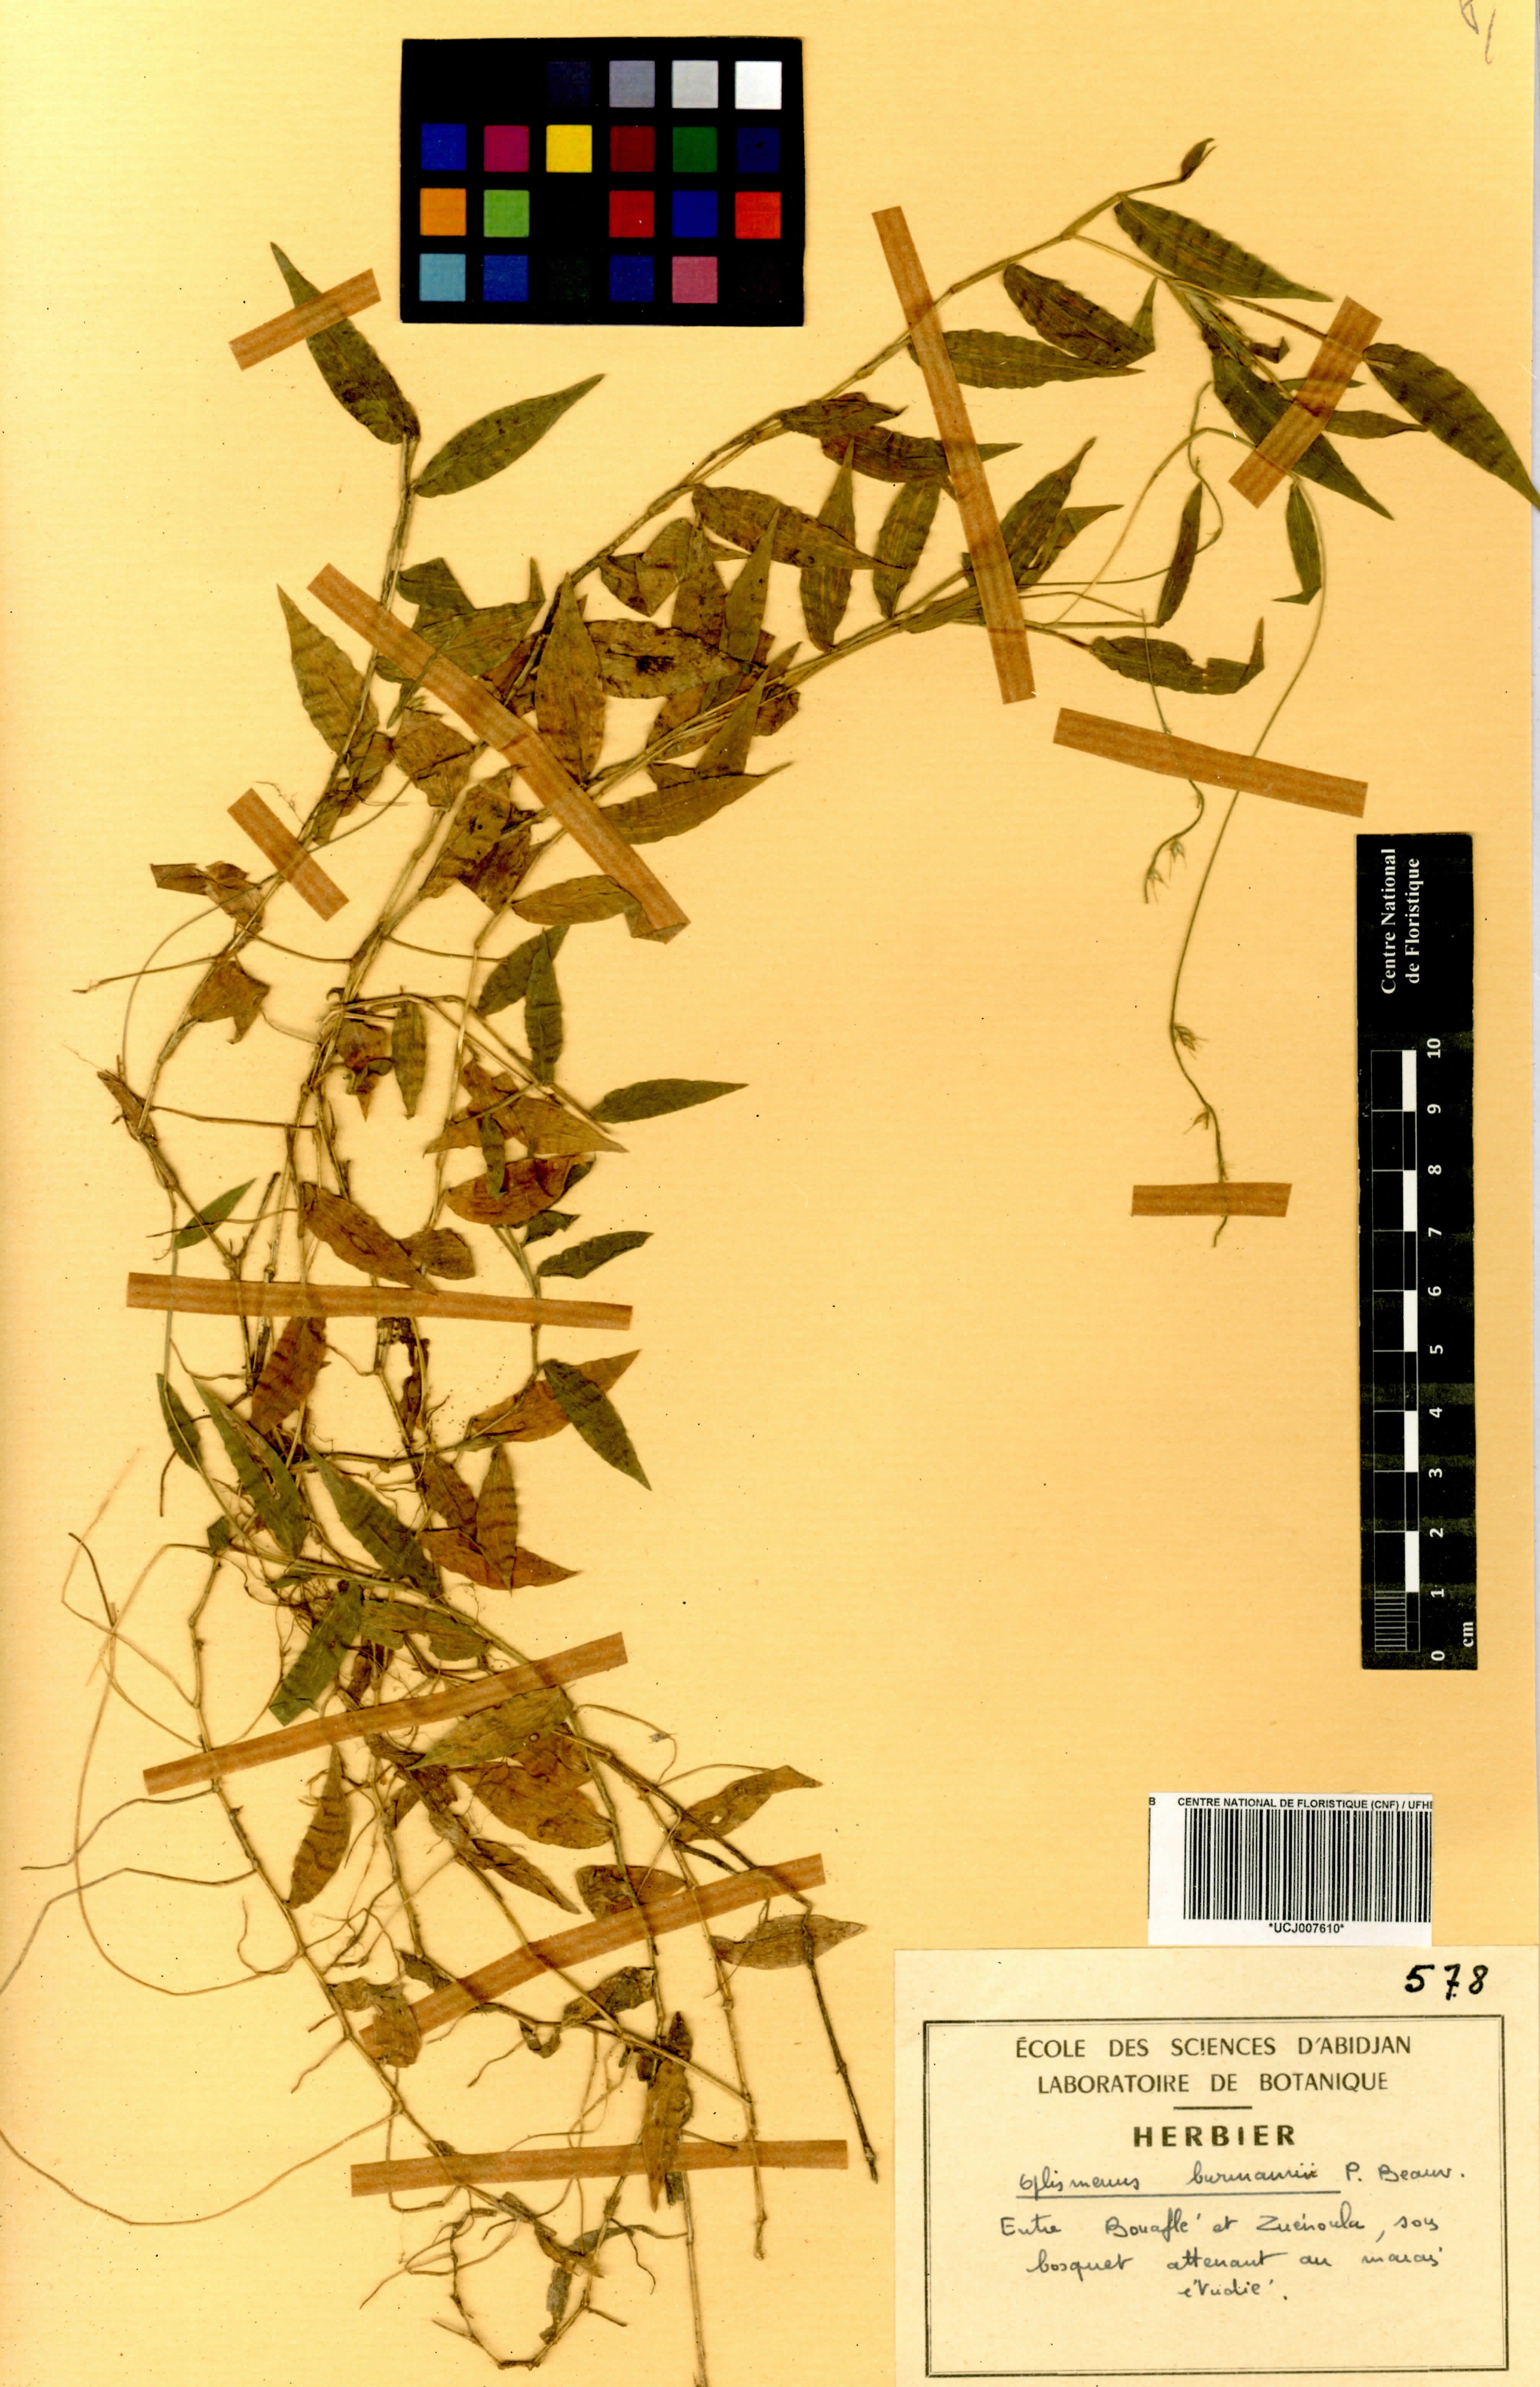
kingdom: Plantae
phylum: Tracheophyta
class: Liliopsida
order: Poales
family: Poaceae
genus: Oplismenus
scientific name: Oplismenus burmanni
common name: Burmann's basketgrass
